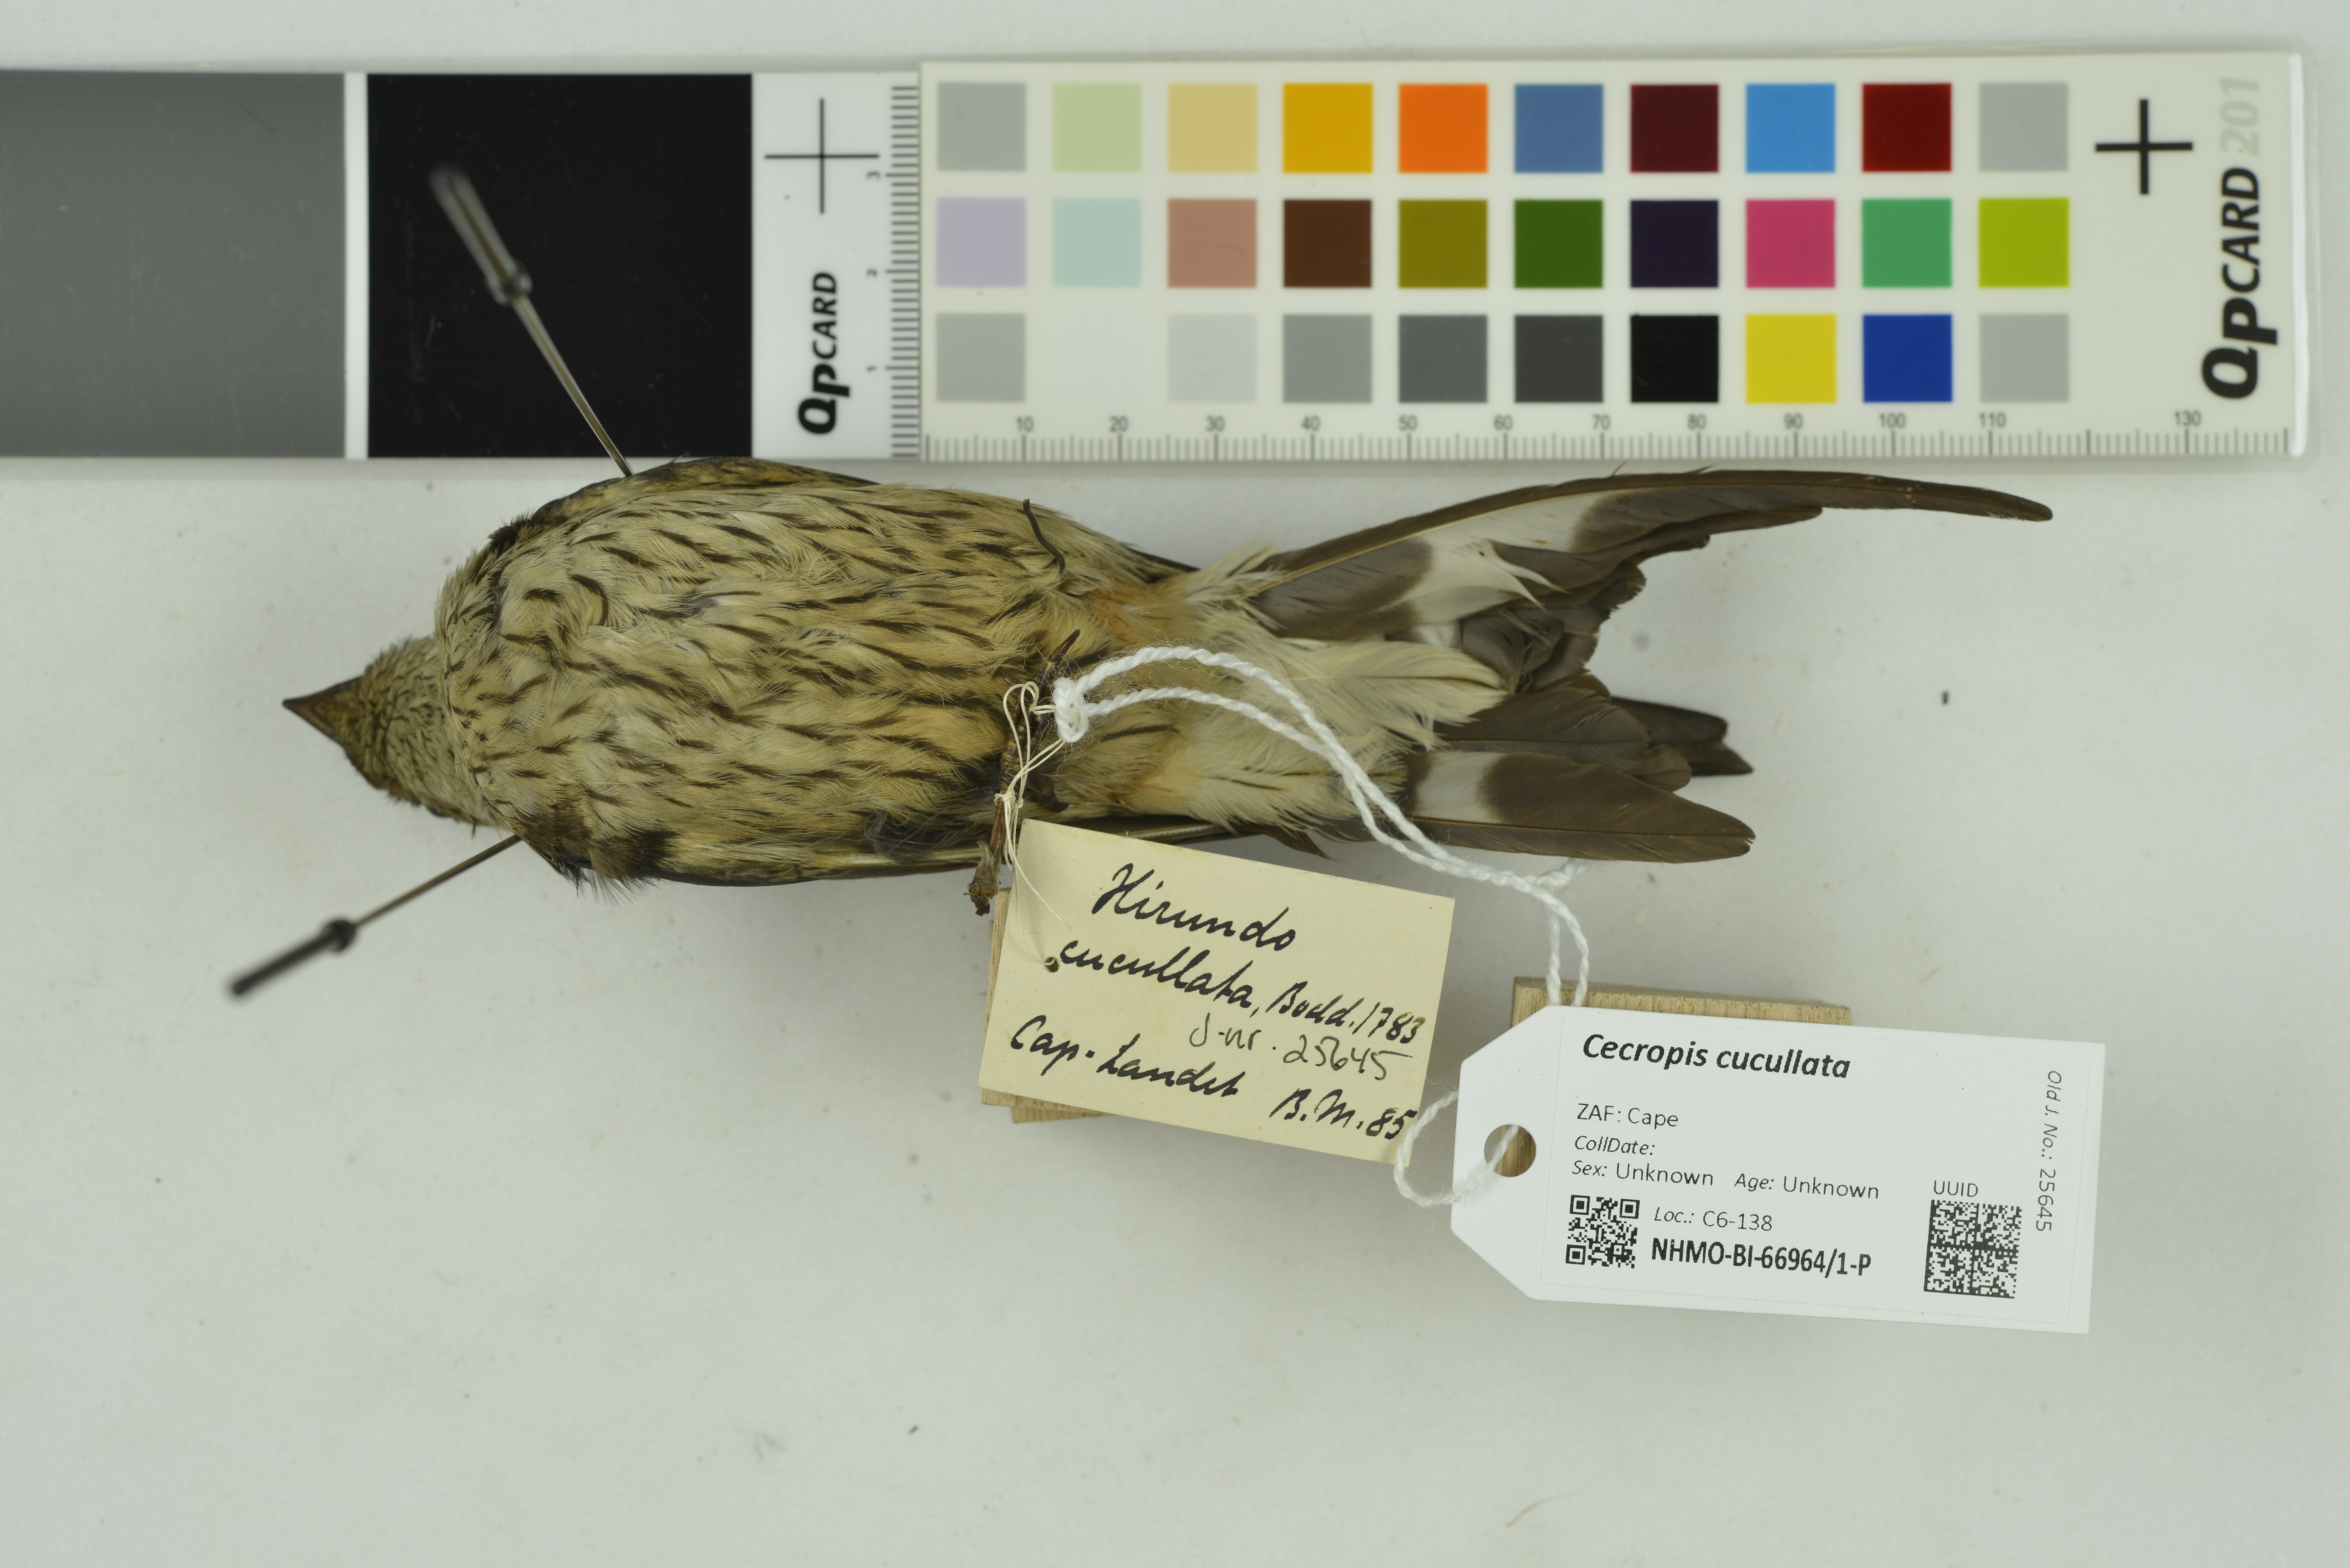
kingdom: Animalia
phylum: Chordata
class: Aves
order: Passeriformes
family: Hirundinidae
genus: Cecropis
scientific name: Cecropis cucullata
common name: Greater striped-swallow
